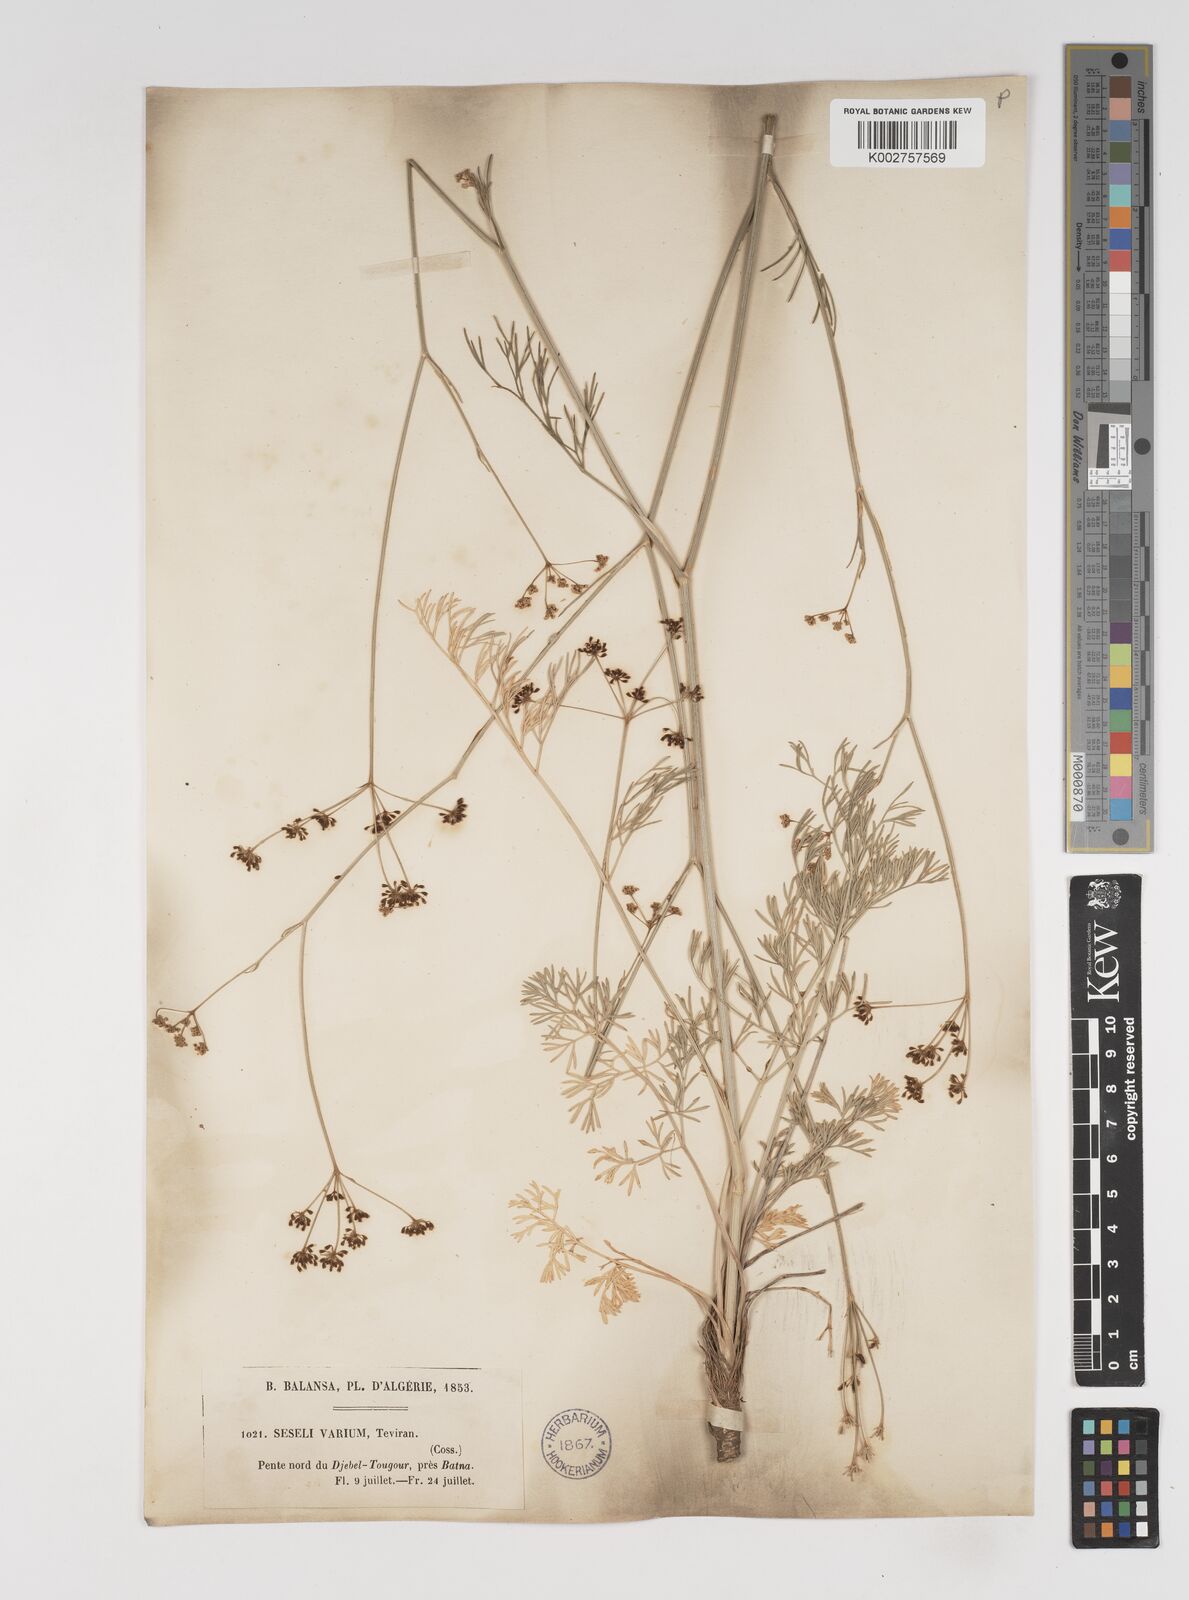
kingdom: Plantae
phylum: Tracheophyta
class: Magnoliopsida
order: Apiales
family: Apiaceae
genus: Seseli
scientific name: Seseli pallasii
